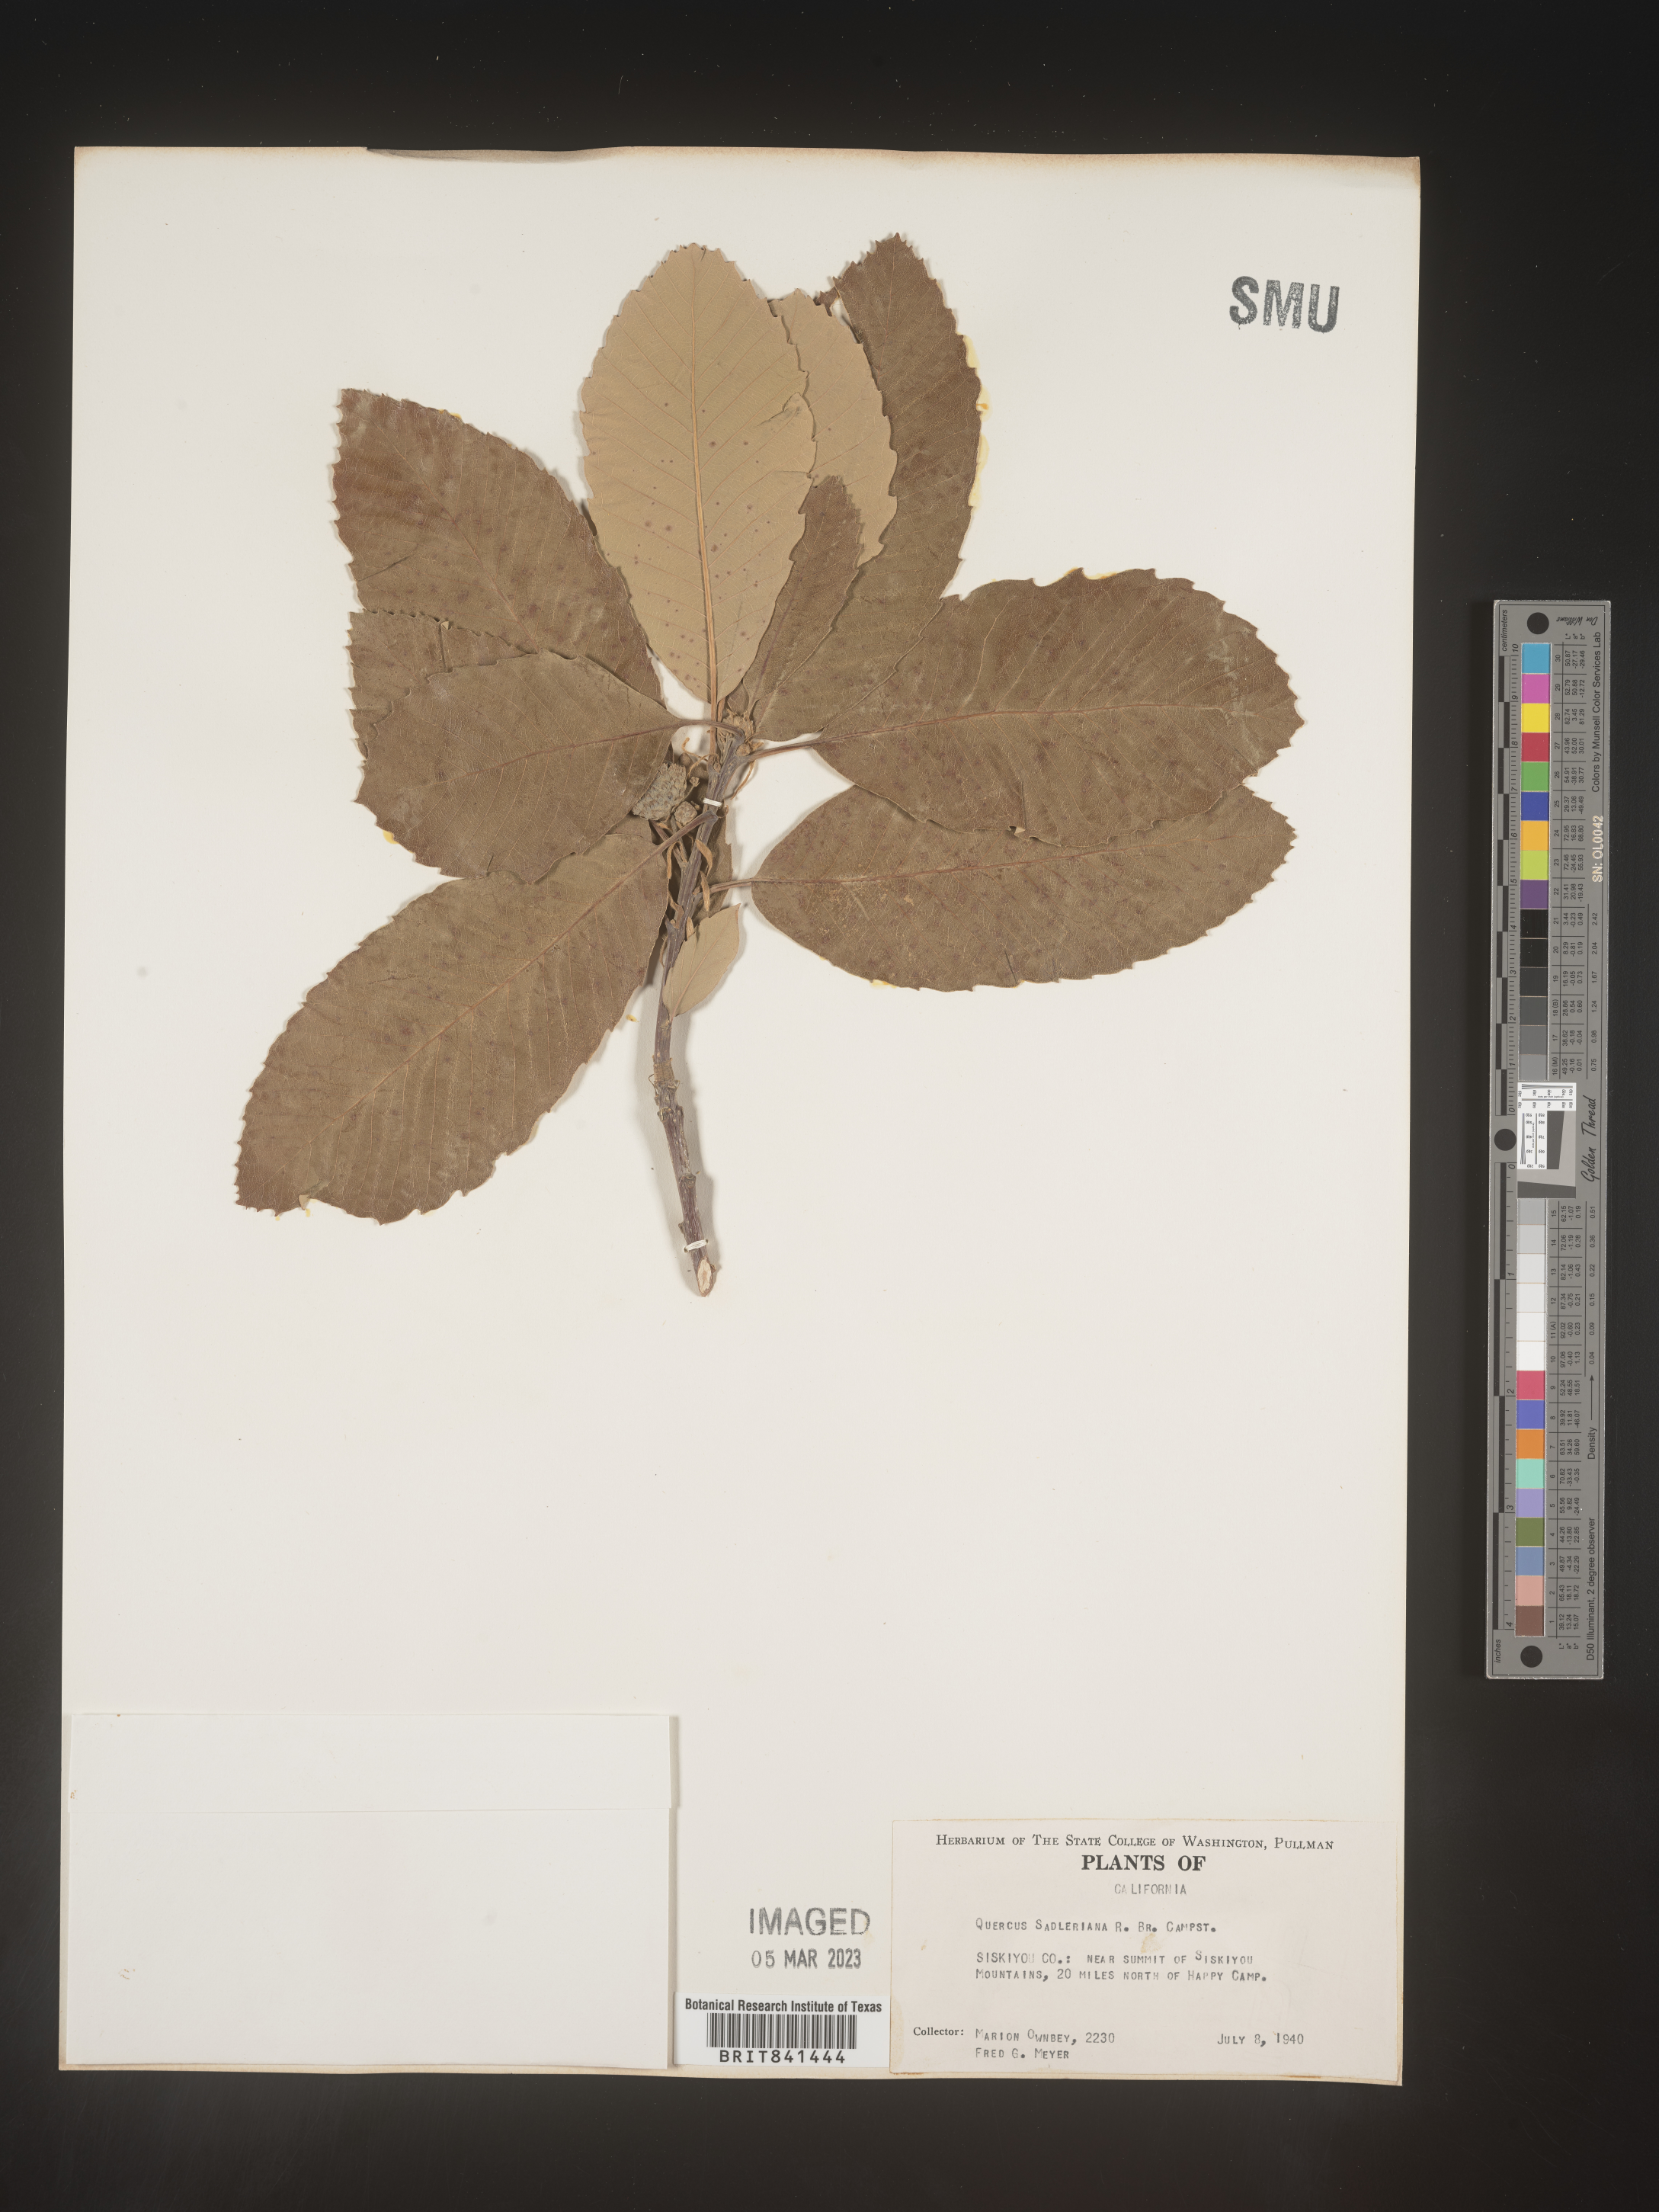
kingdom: Plantae
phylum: Tracheophyta
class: Magnoliopsida
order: Fagales
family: Fagaceae
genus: Quercus
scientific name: Quercus sadleriana
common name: Deer oak
